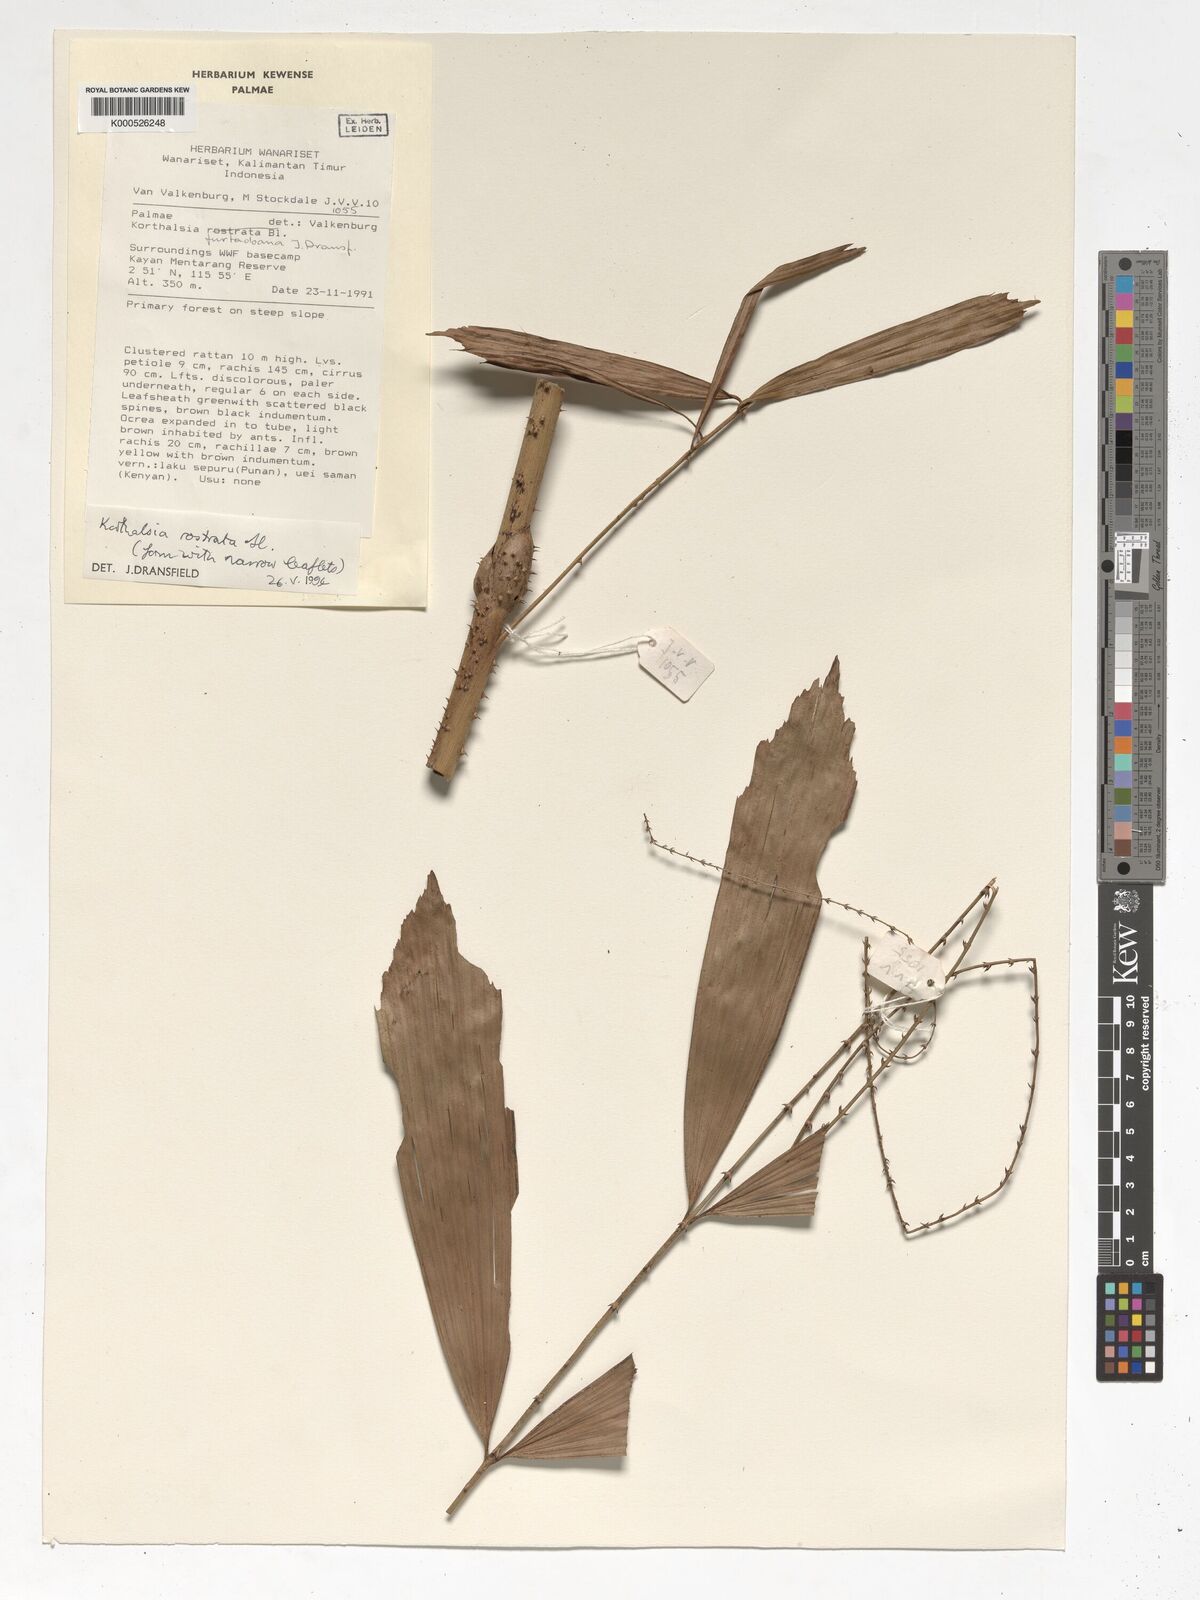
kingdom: Plantae
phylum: Tracheophyta
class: Liliopsida
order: Arecales
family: Arecaceae
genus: Korthalsia
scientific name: Korthalsia rostrata
